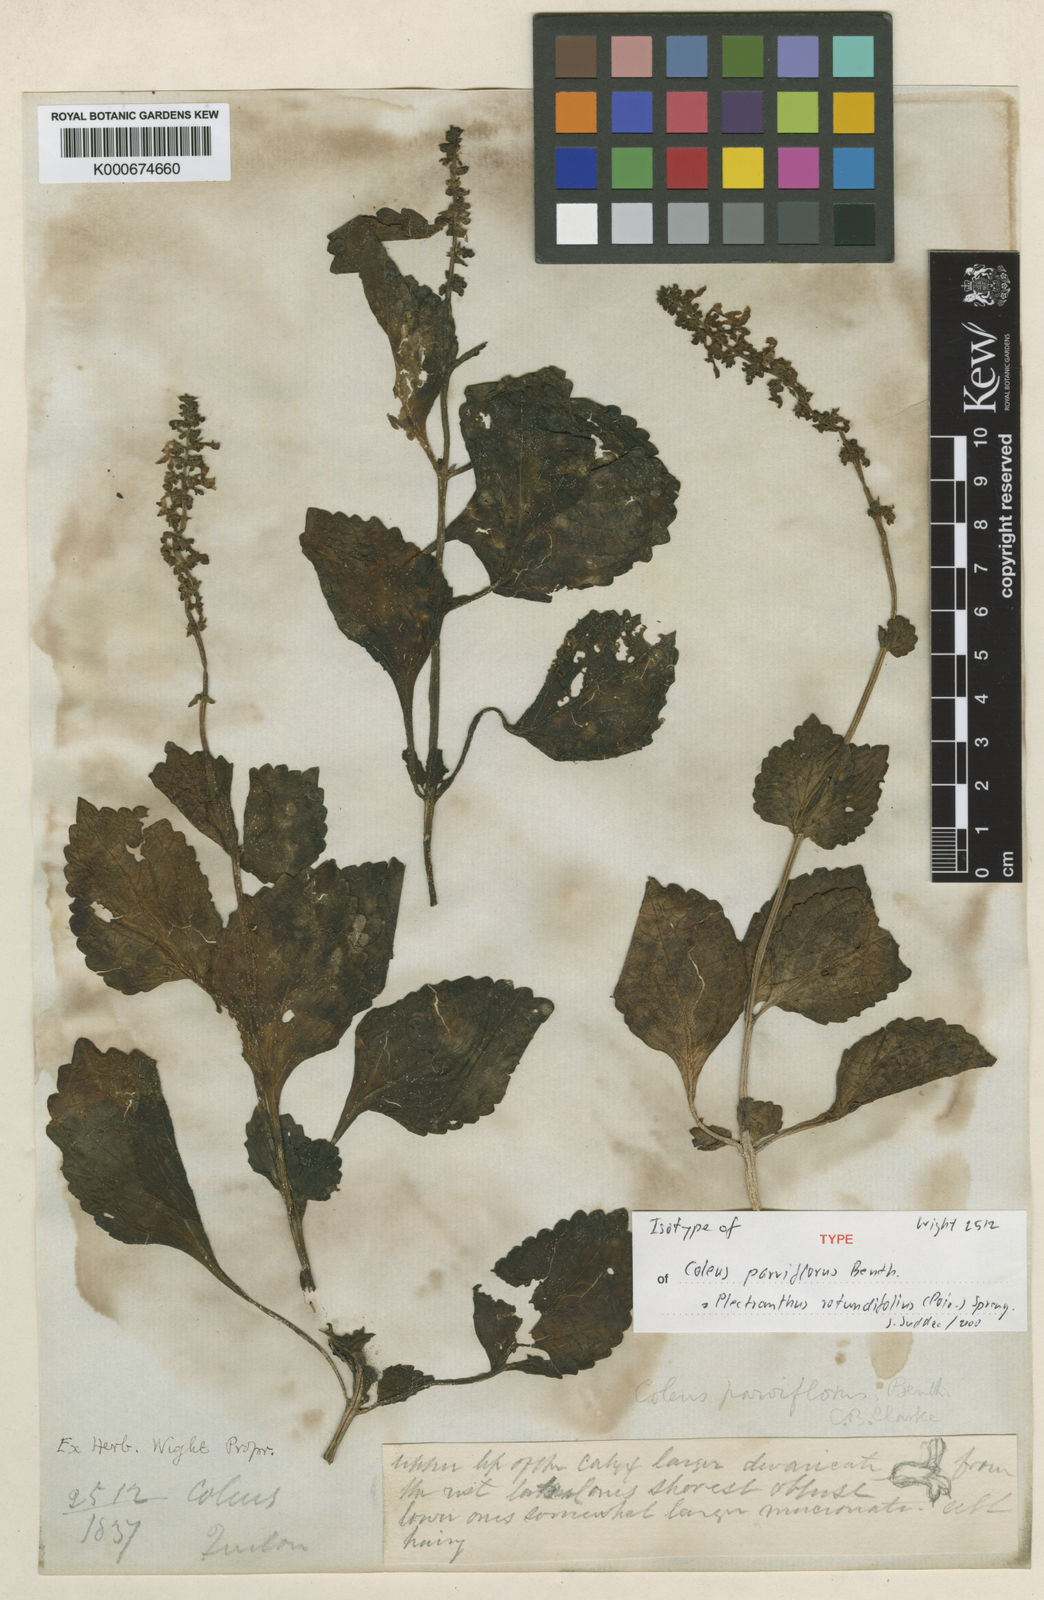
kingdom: Plantae
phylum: Tracheophyta
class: Magnoliopsida
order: Lamiales
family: Lamiaceae
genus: Coleus
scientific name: Coleus rotundifolius
